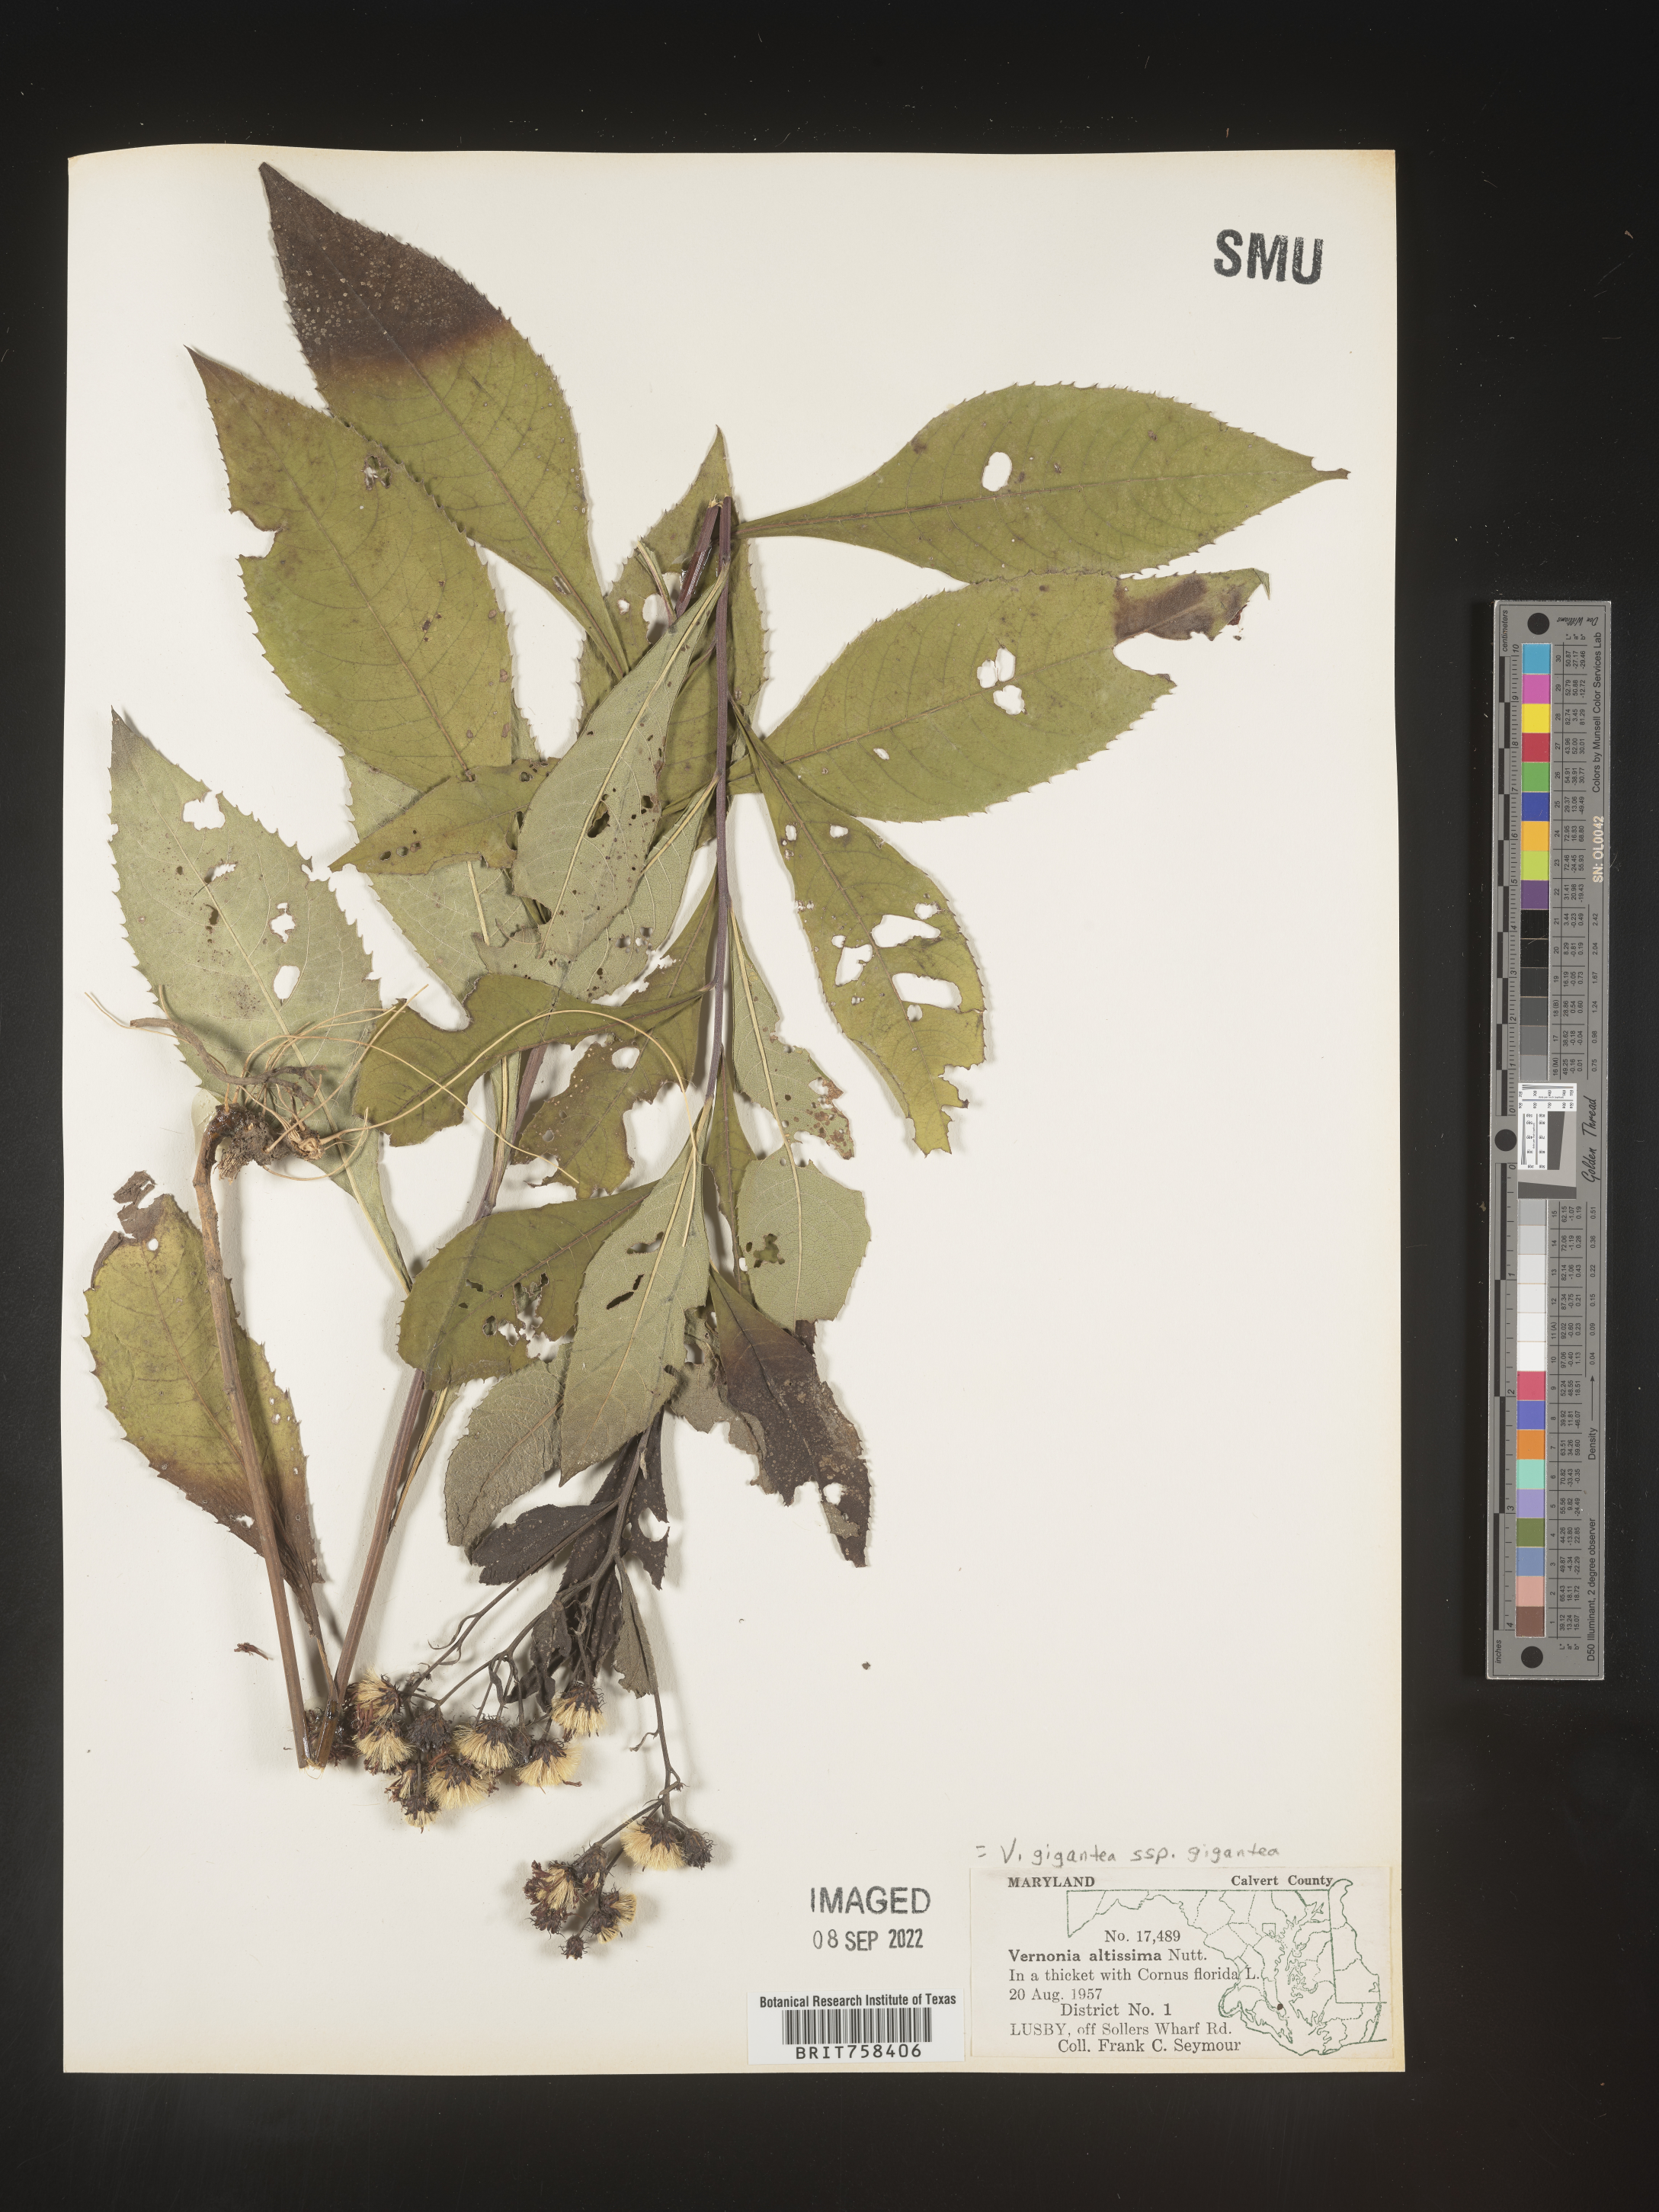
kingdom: Plantae
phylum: Tracheophyta
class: Magnoliopsida
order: Asterales
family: Asteraceae
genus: Vernonia
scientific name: Vernonia gigantea
